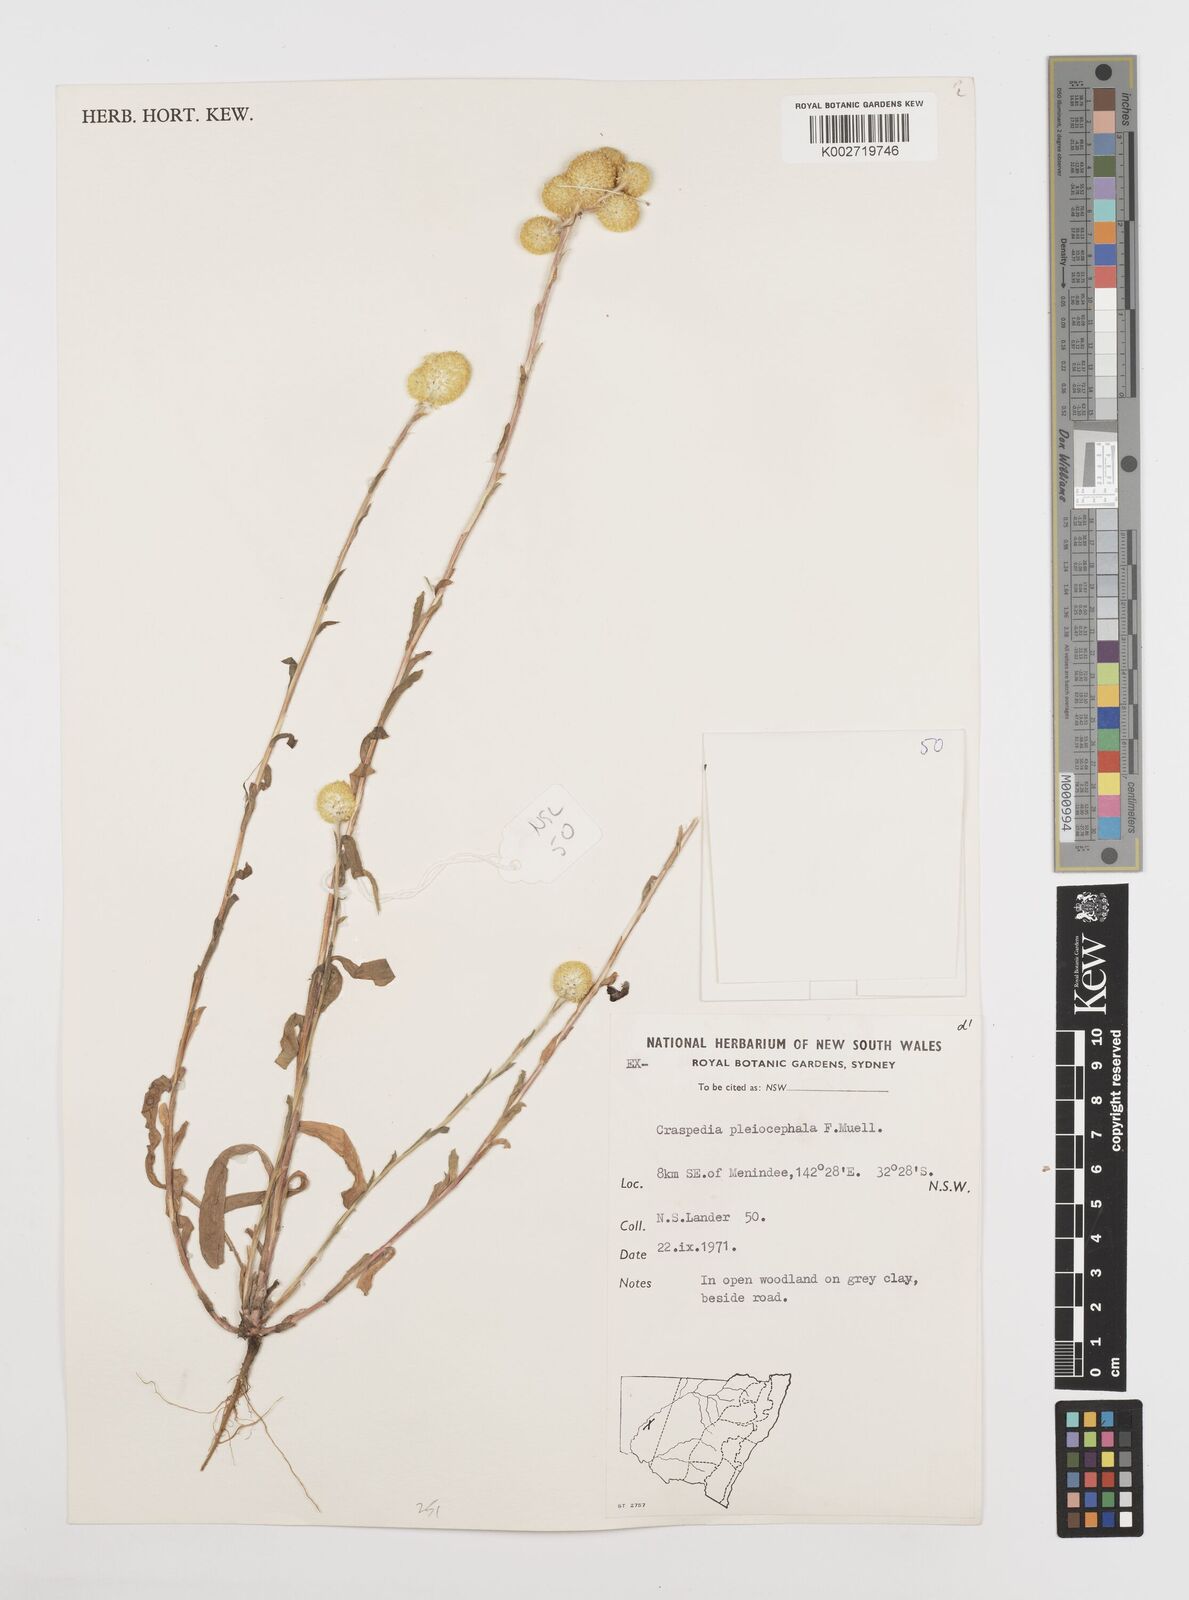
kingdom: Plantae
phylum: Tracheophyta
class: Magnoliopsida
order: Asterales
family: Asteraceae
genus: Pycnosorus
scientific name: Pycnosorus pleiocephalus
